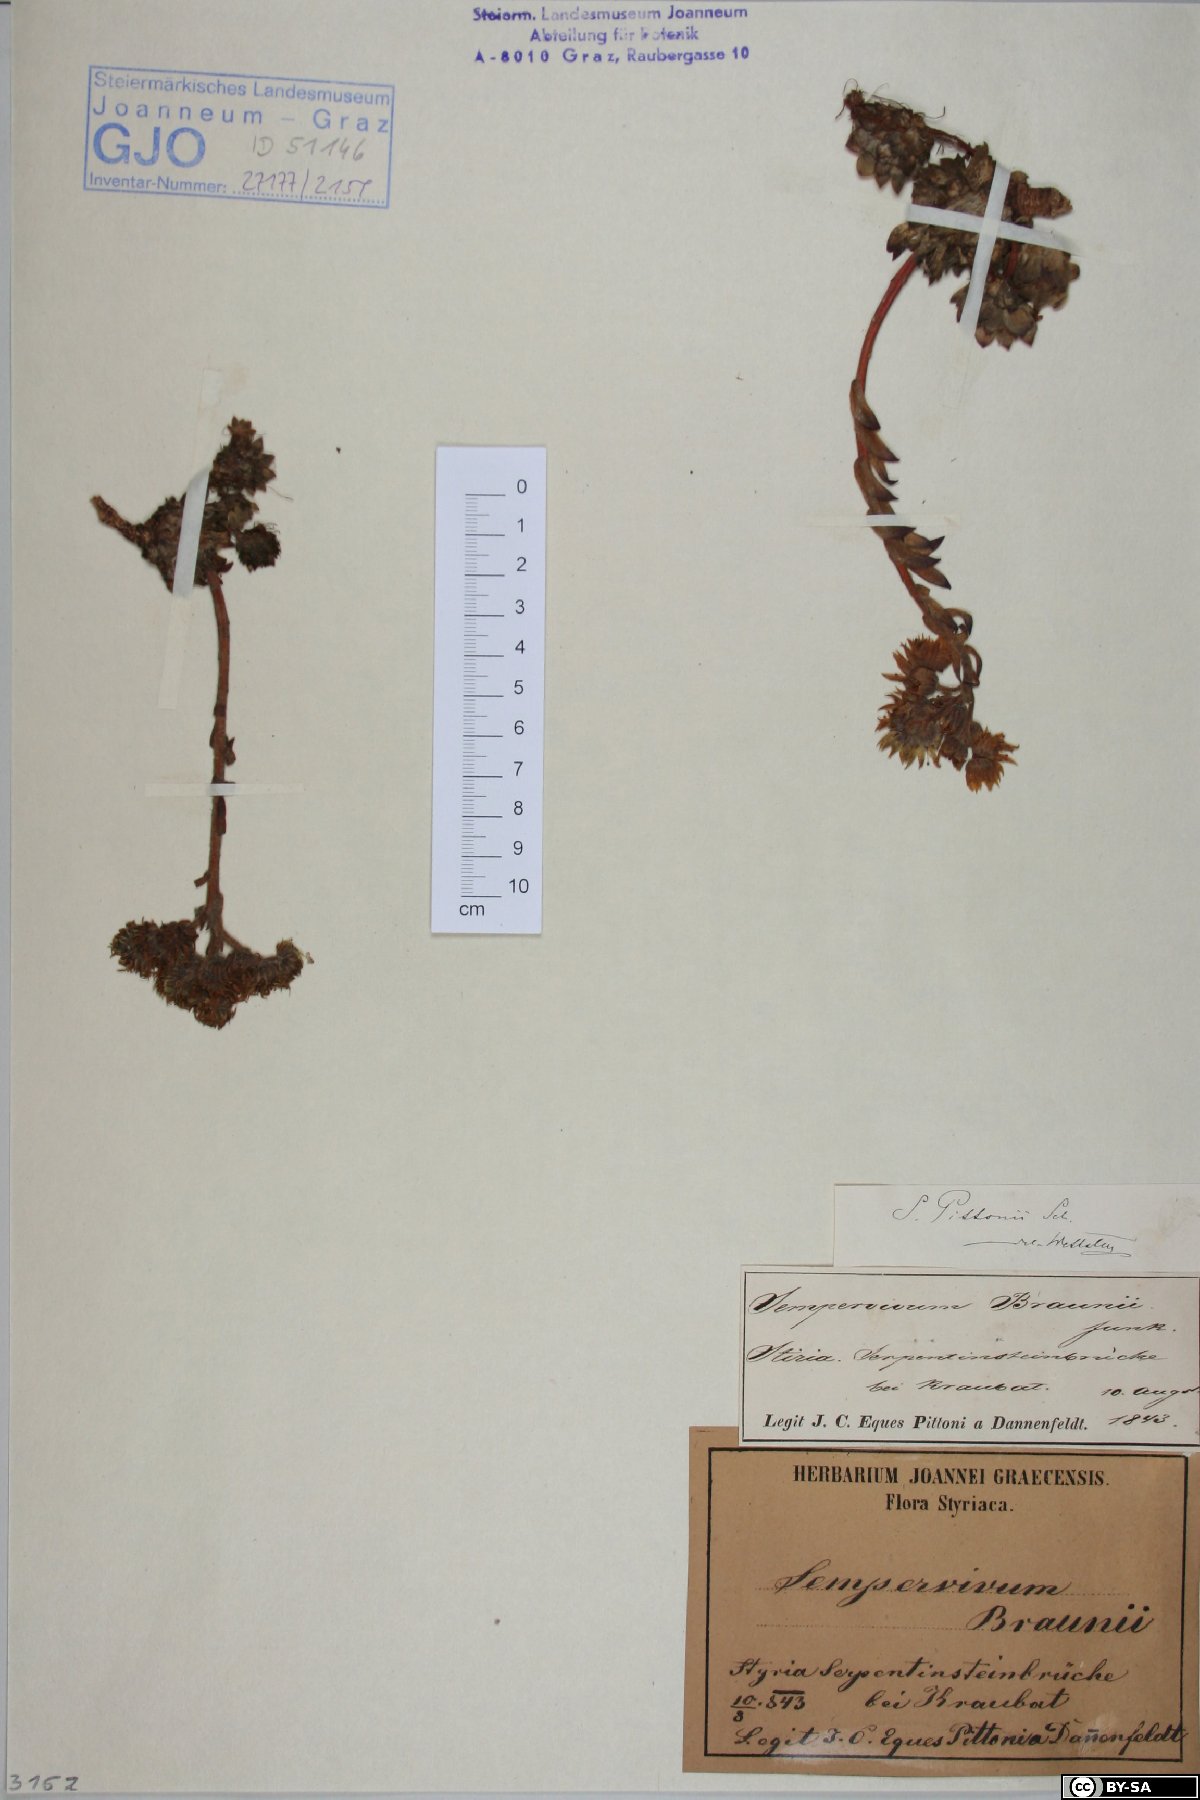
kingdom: Plantae
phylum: Tracheophyta
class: Magnoliopsida
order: Saxifragales
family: Crassulaceae
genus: Sempervivum
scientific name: Sempervivum pittonii
